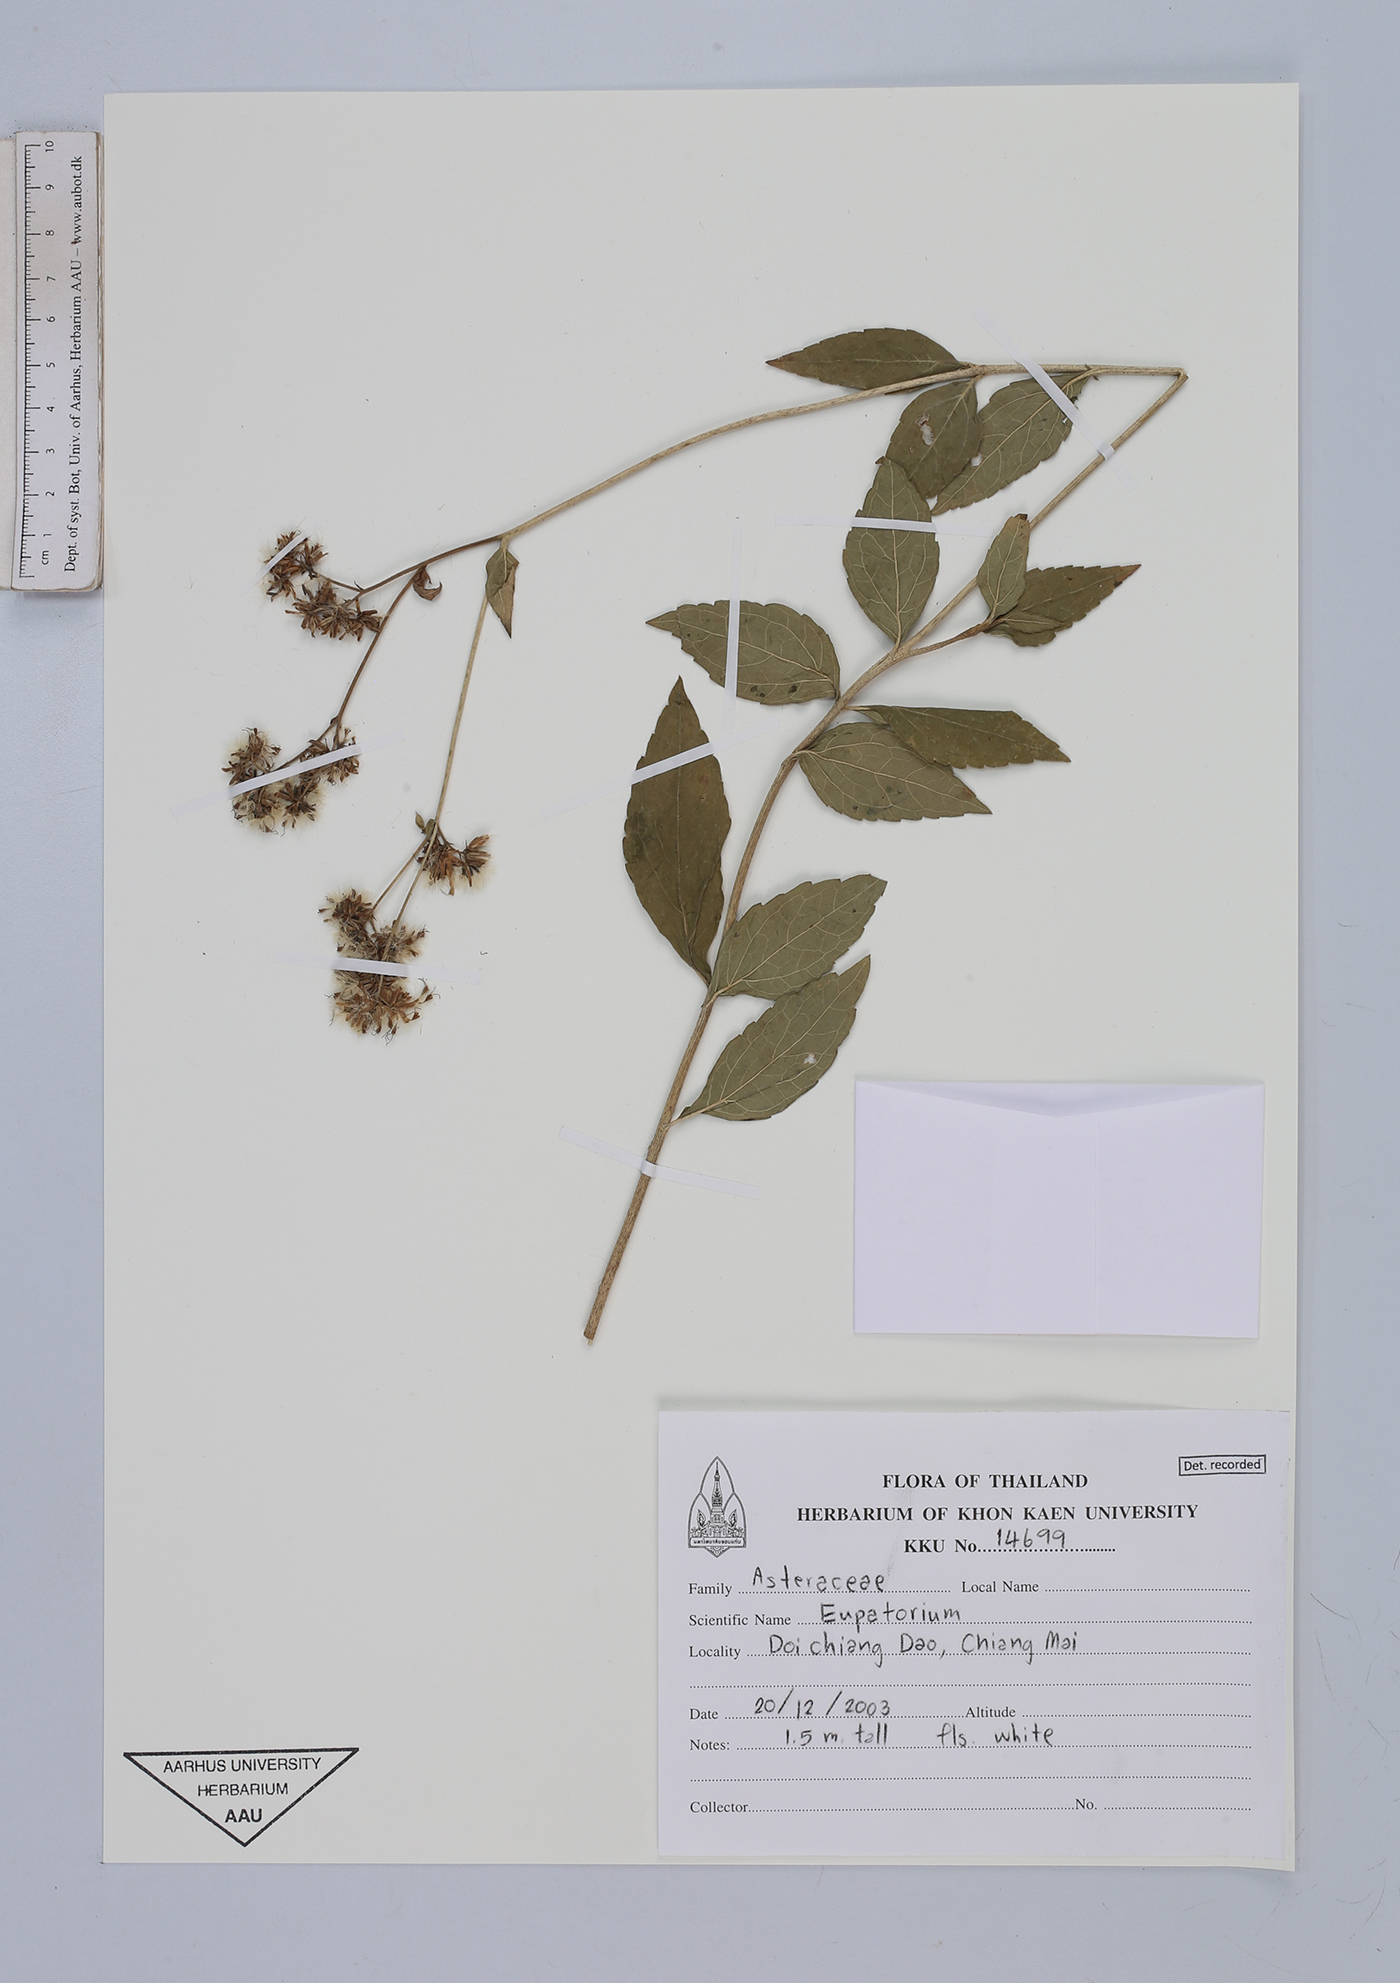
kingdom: Plantae
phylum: Tracheophyta
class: Magnoliopsida
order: Asterales
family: Asteraceae
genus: Eupatorium
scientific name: Eupatorium
